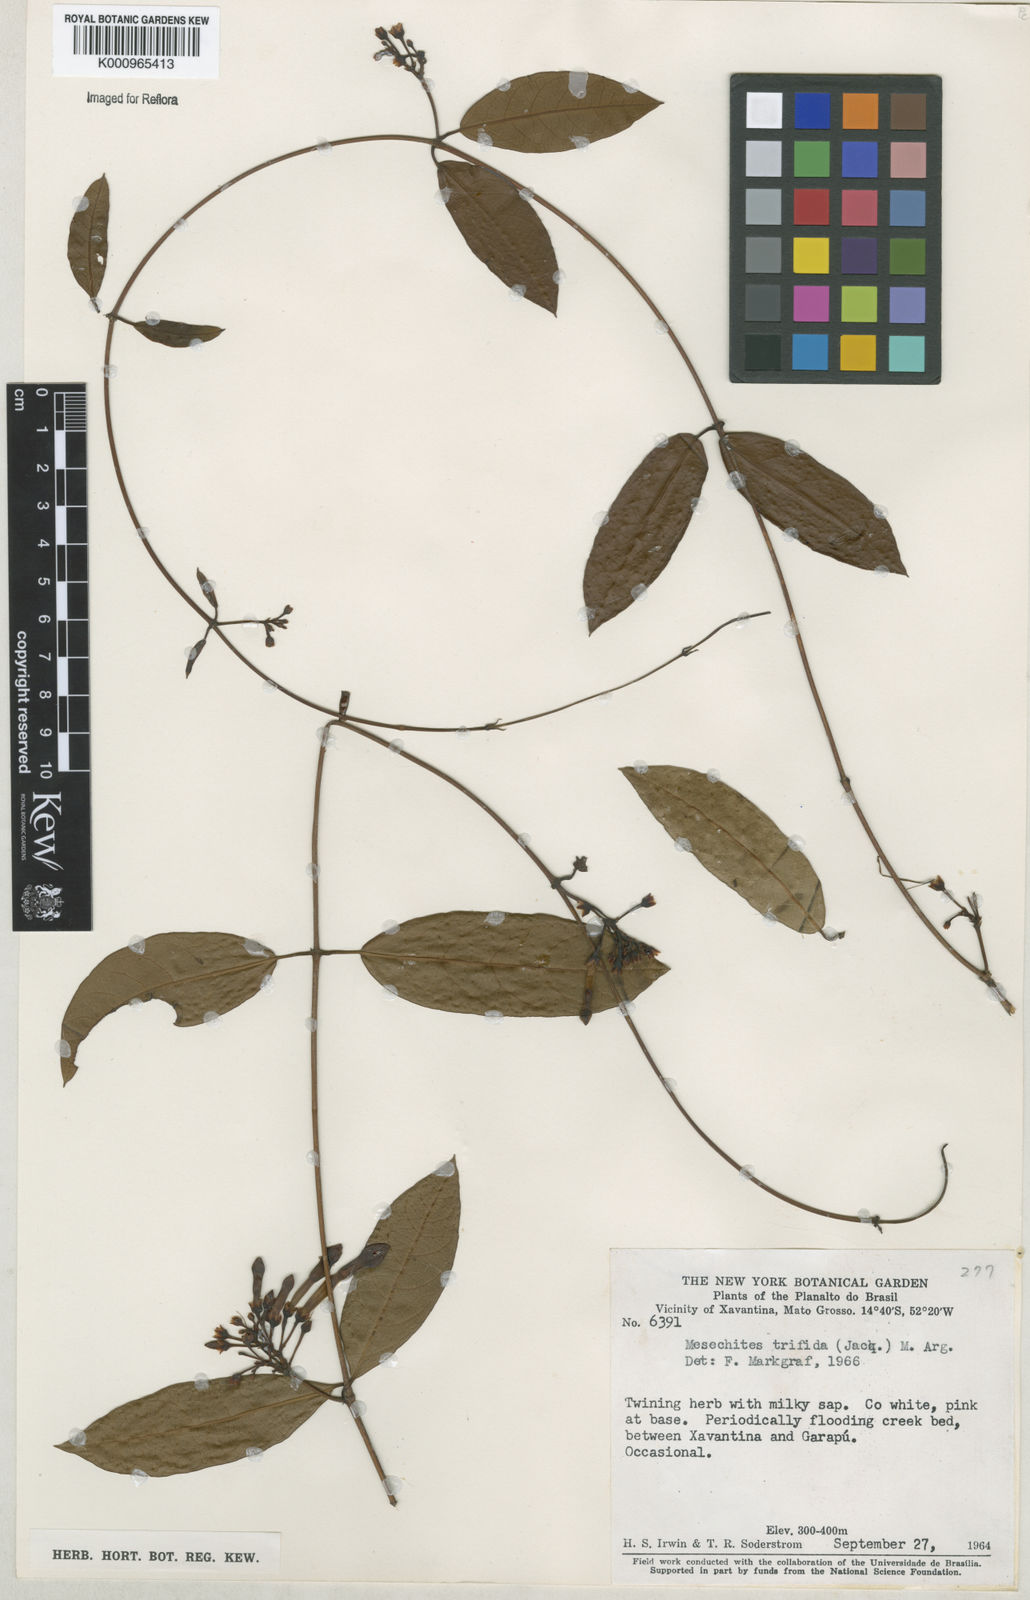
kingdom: Plantae
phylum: Tracheophyta
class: Magnoliopsida
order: Gentianales
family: Apocynaceae
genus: Mesechites
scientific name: Mesechites
